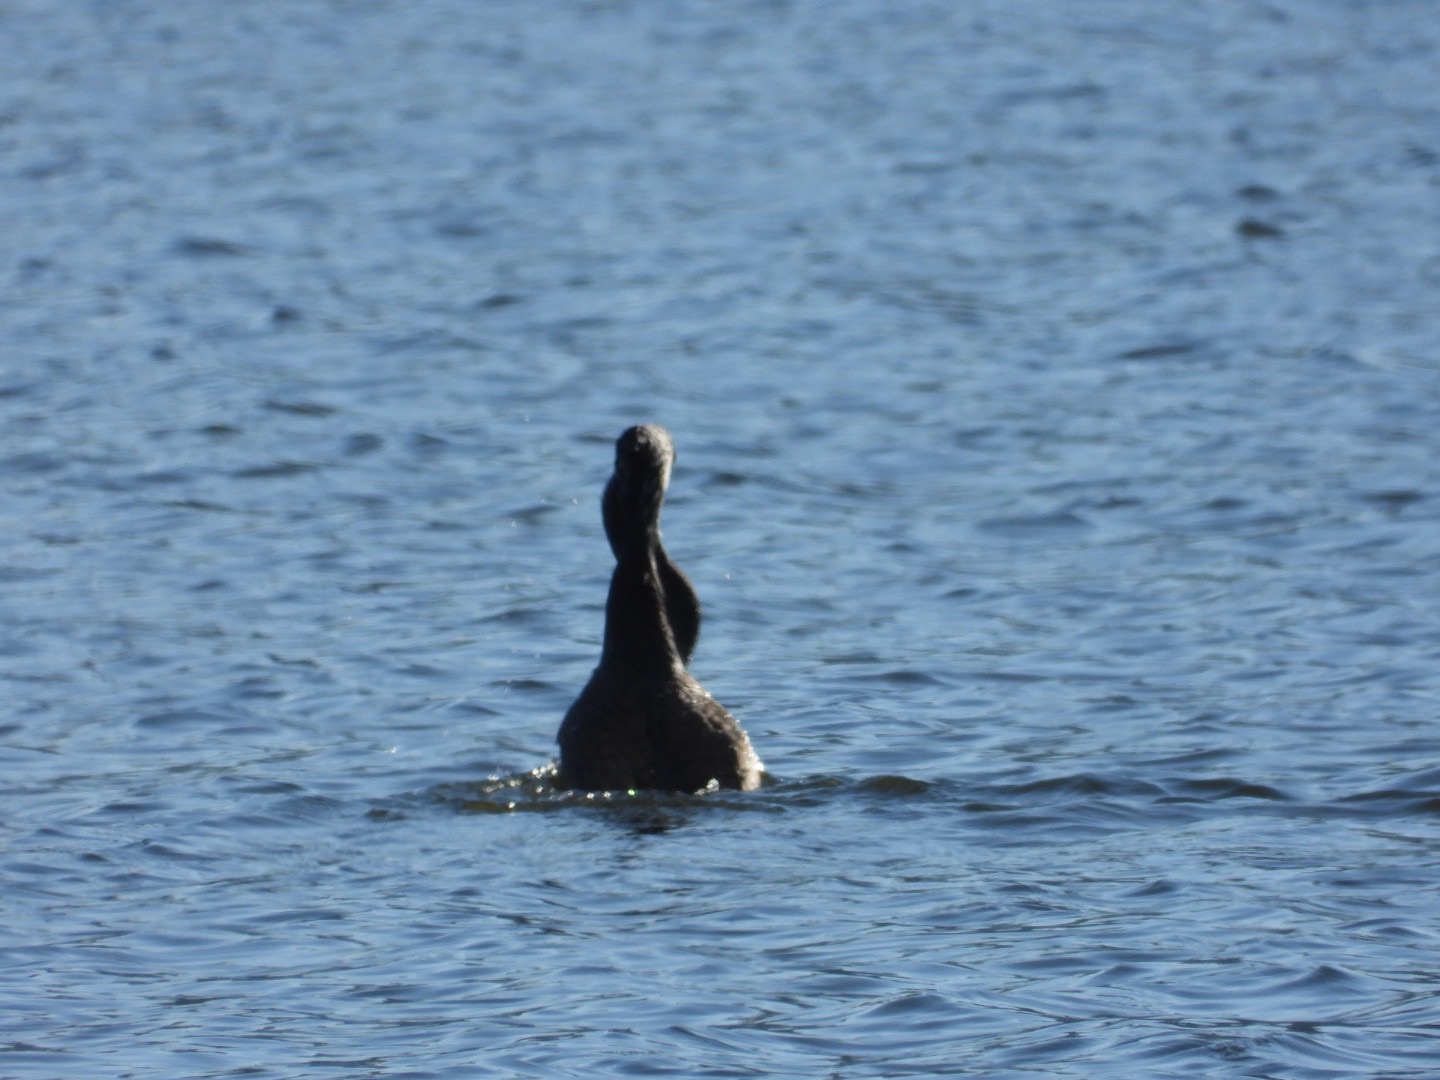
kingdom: Animalia
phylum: Chordata
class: Aves
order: Suliformes
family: Phalacrocoracidae
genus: Phalacrocorax
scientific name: Phalacrocorax carbo
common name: Skarv
